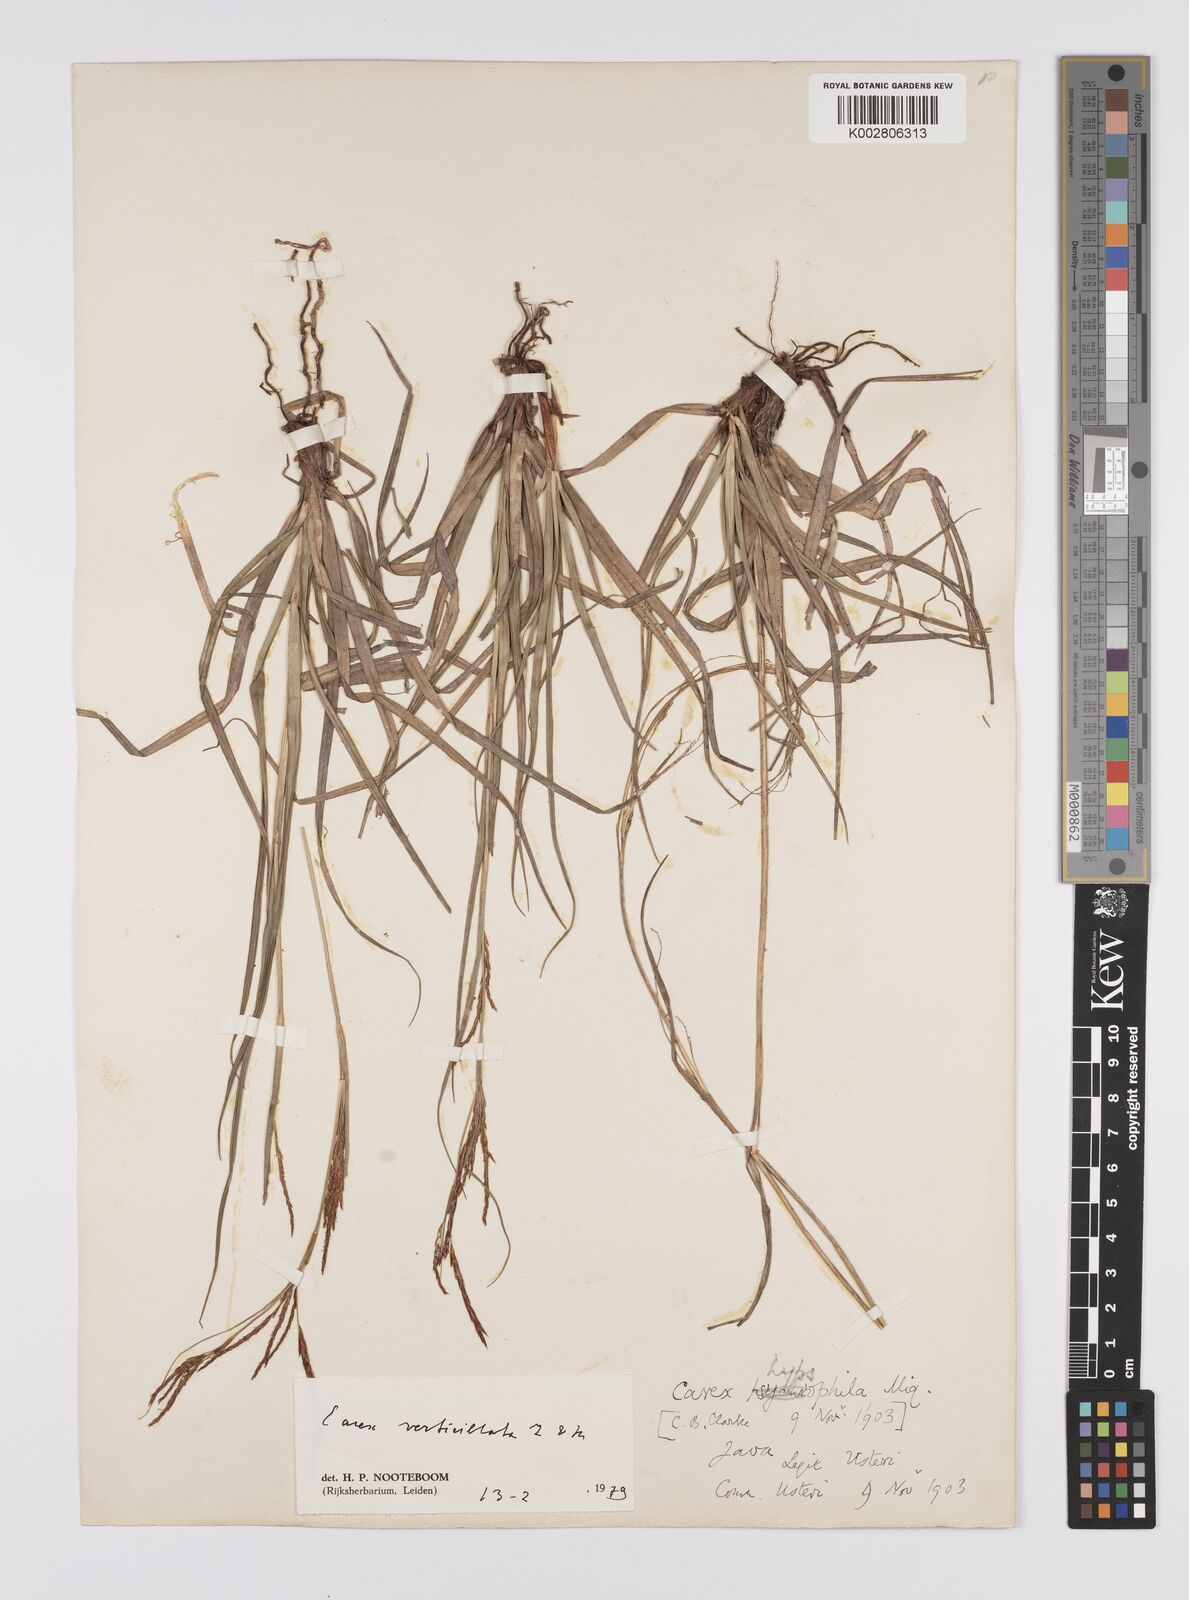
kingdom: Plantae
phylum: Tracheophyta
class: Liliopsida
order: Poales
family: Cyperaceae
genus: Carex
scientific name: Carex verticillata
